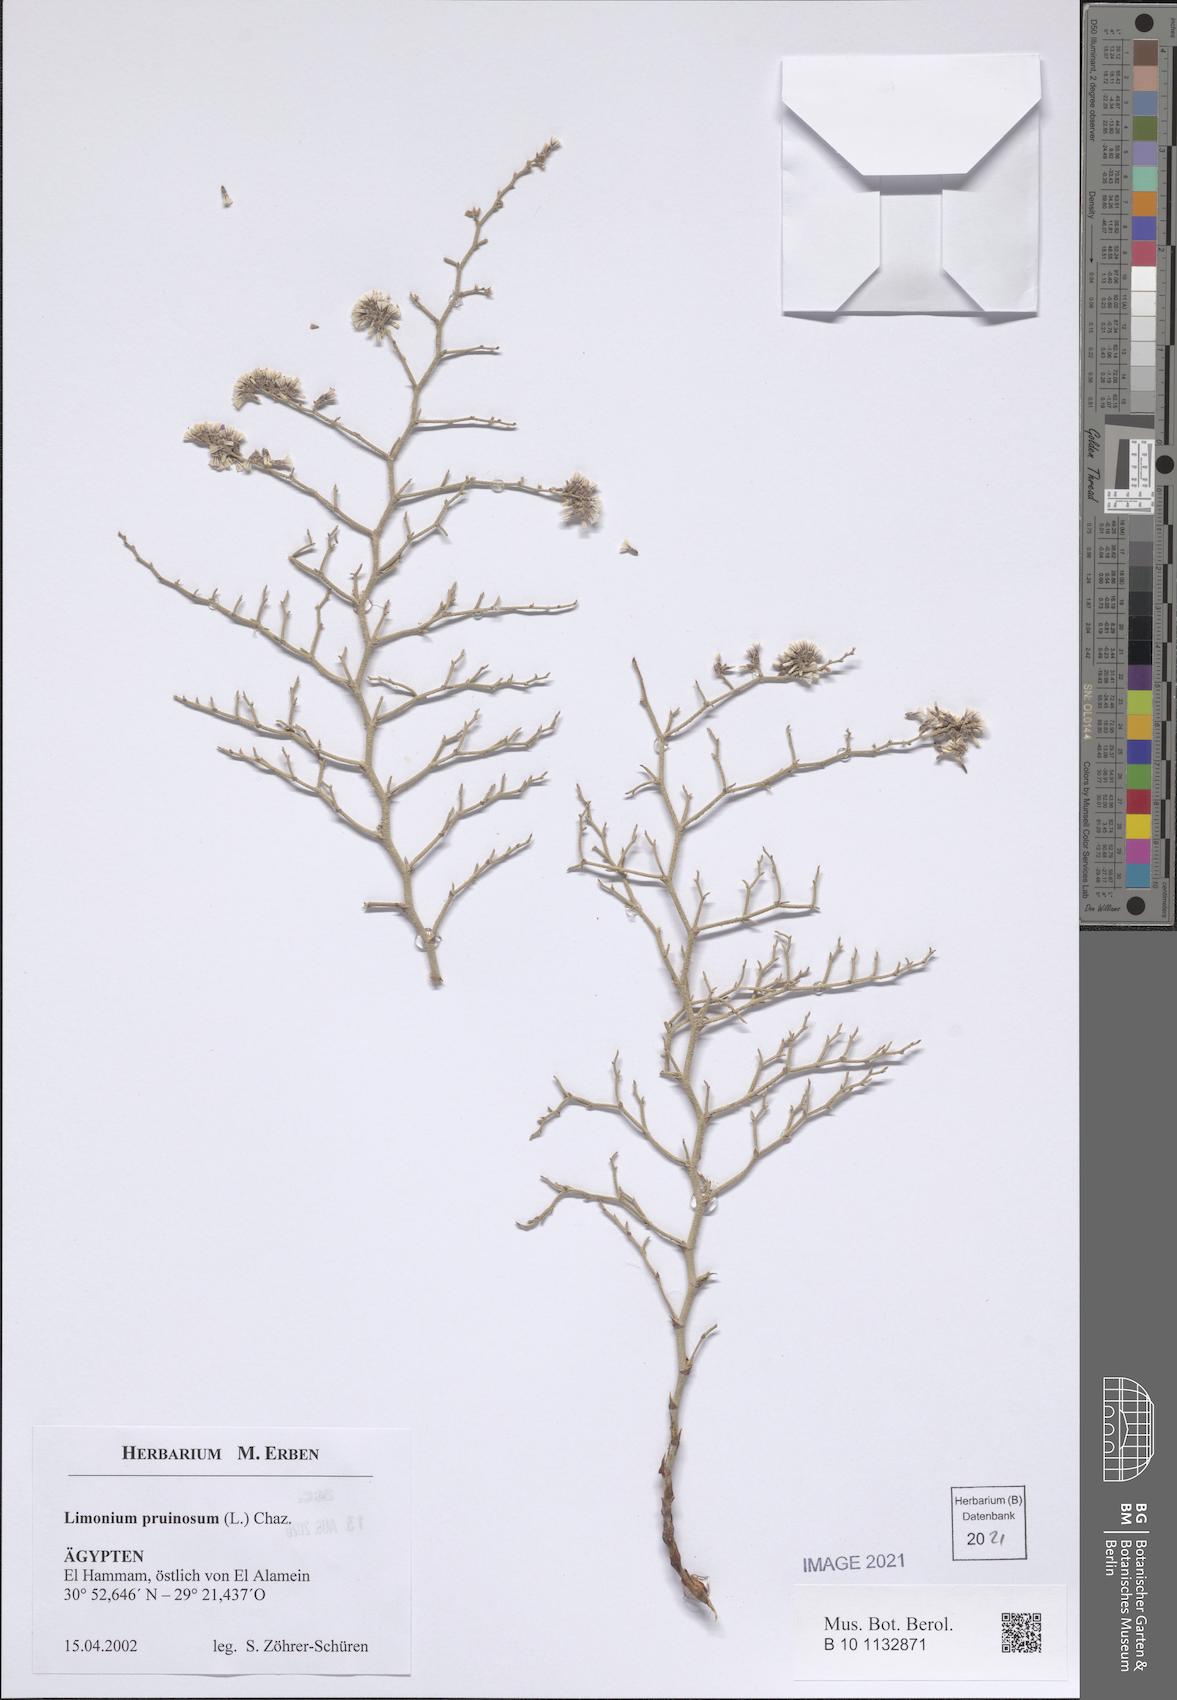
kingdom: Plantae
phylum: Tracheophyta
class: Magnoliopsida
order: Caryophyllales
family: Plumbaginaceae
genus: Limonium
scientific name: Limonium pruinosum
